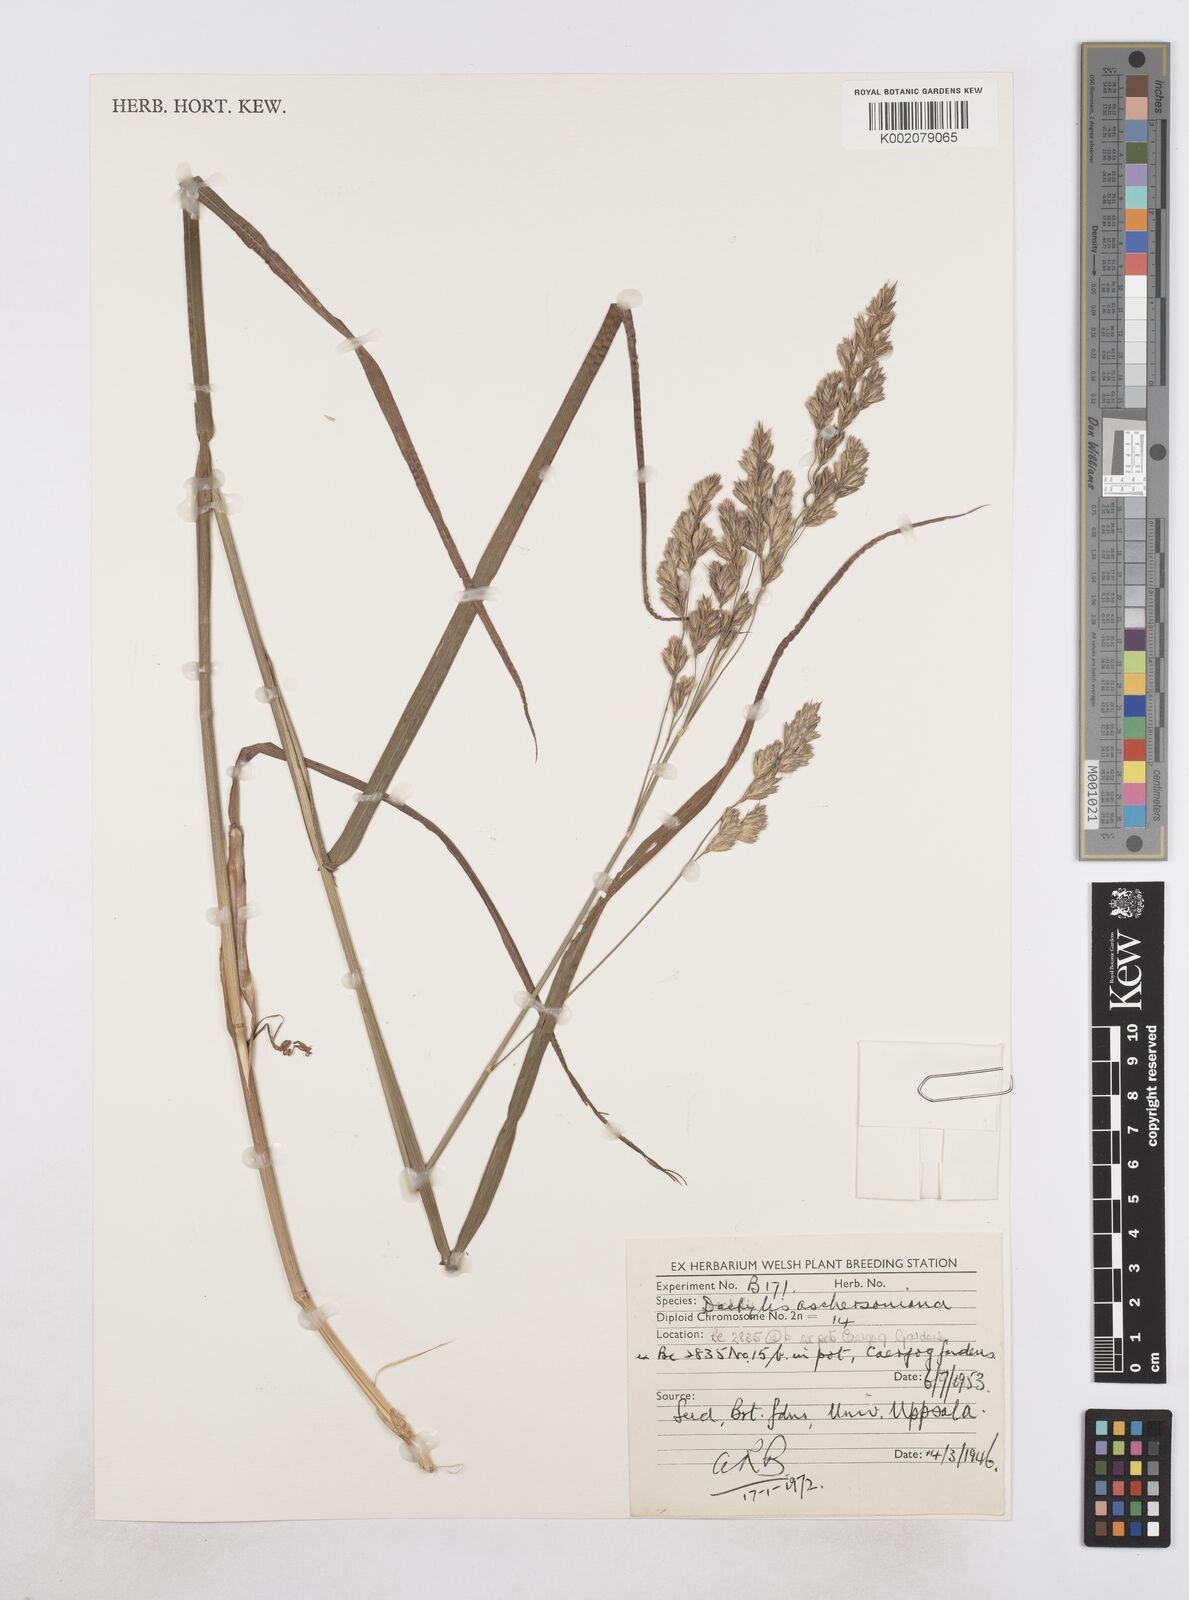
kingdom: Plantae
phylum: Tracheophyta
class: Liliopsida
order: Poales
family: Poaceae
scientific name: Poaceae
